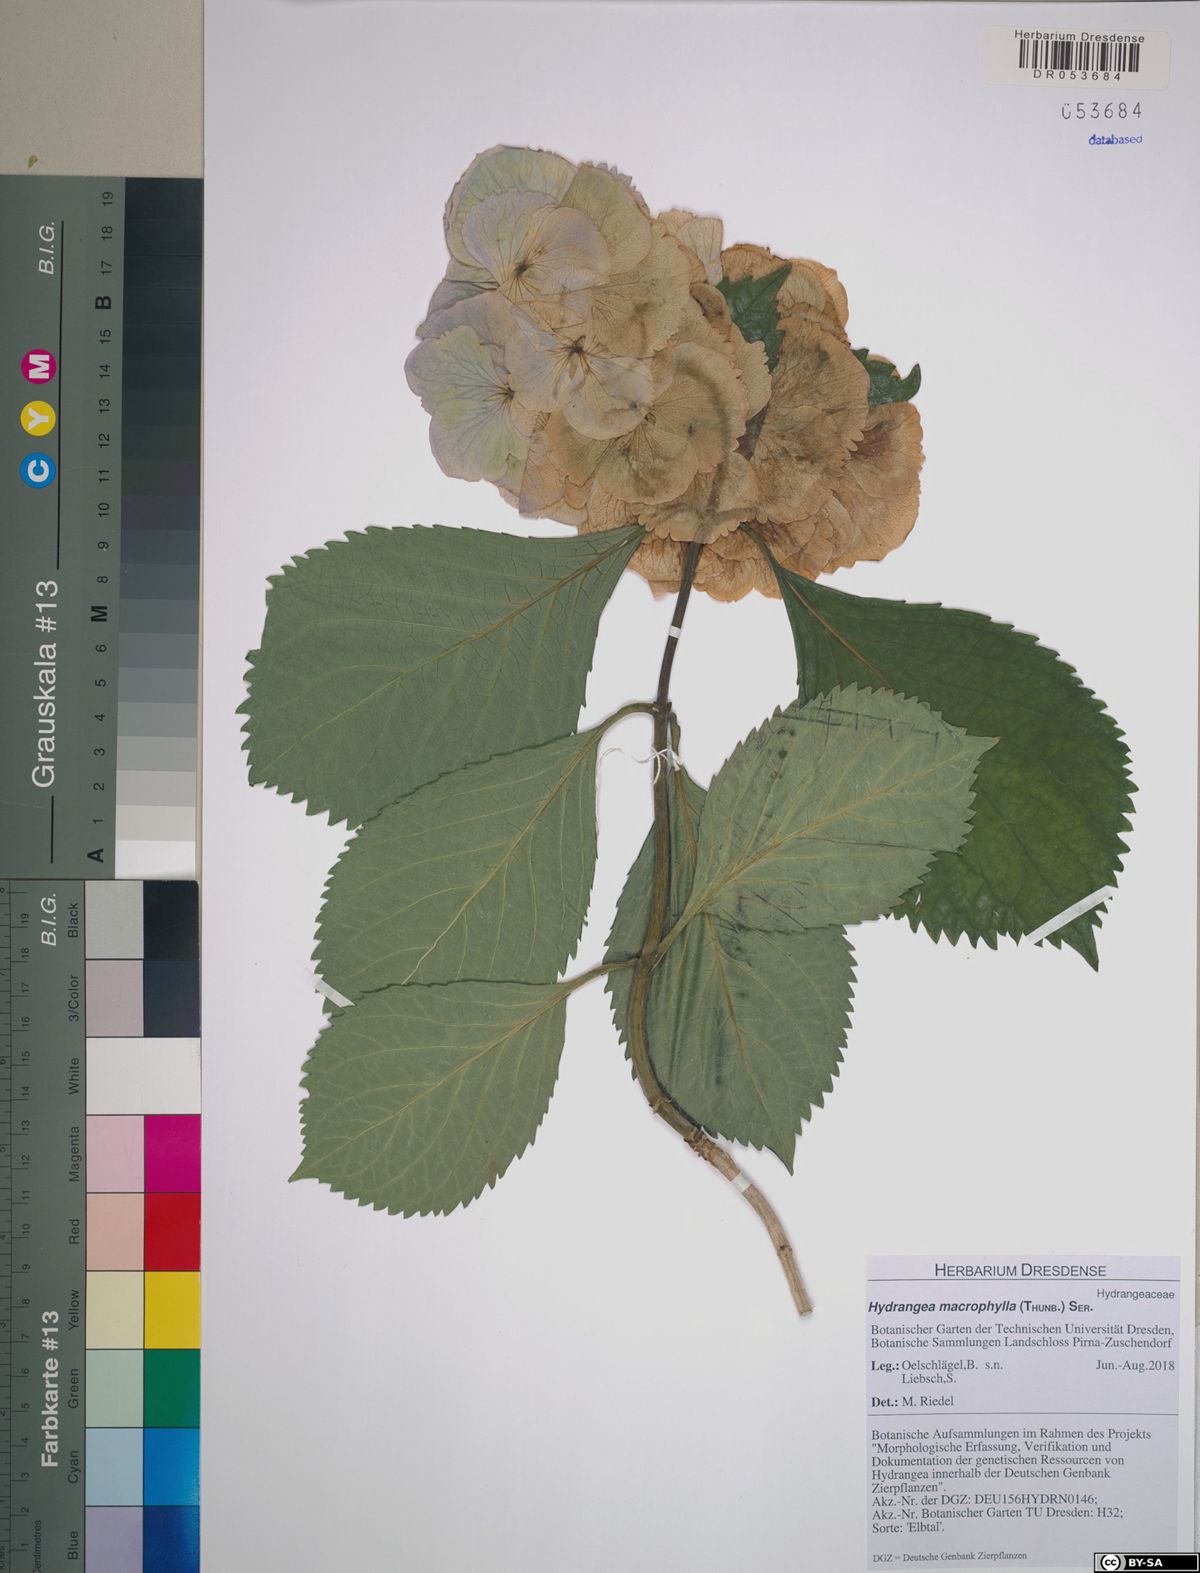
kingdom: Plantae
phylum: Tracheophyta
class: Magnoliopsida
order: Cornales
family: Hydrangeaceae
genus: Hydrangea
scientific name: Hydrangea macrophylla
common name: Hydrangea
